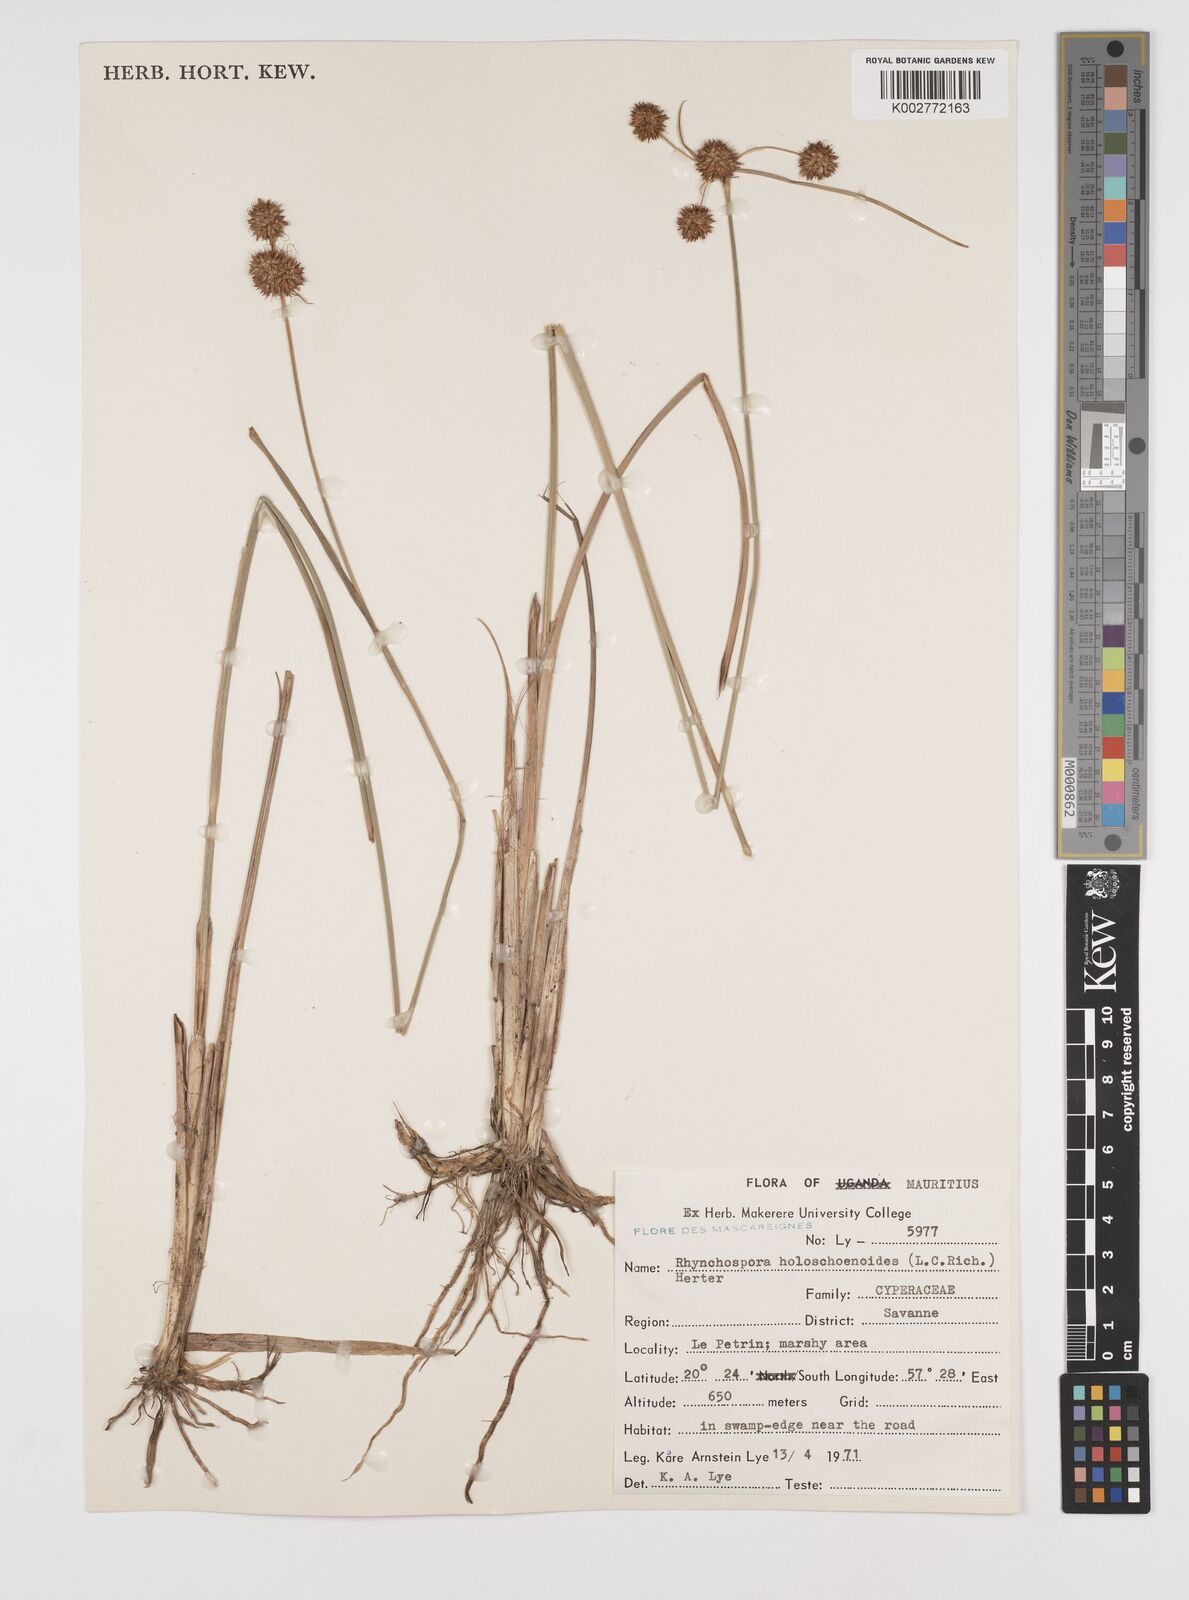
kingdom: Plantae
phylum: Tracheophyta
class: Liliopsida
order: Poales
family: Cyperaceae
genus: Rhynchospora
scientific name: Rhynchospora holoschoenoides
